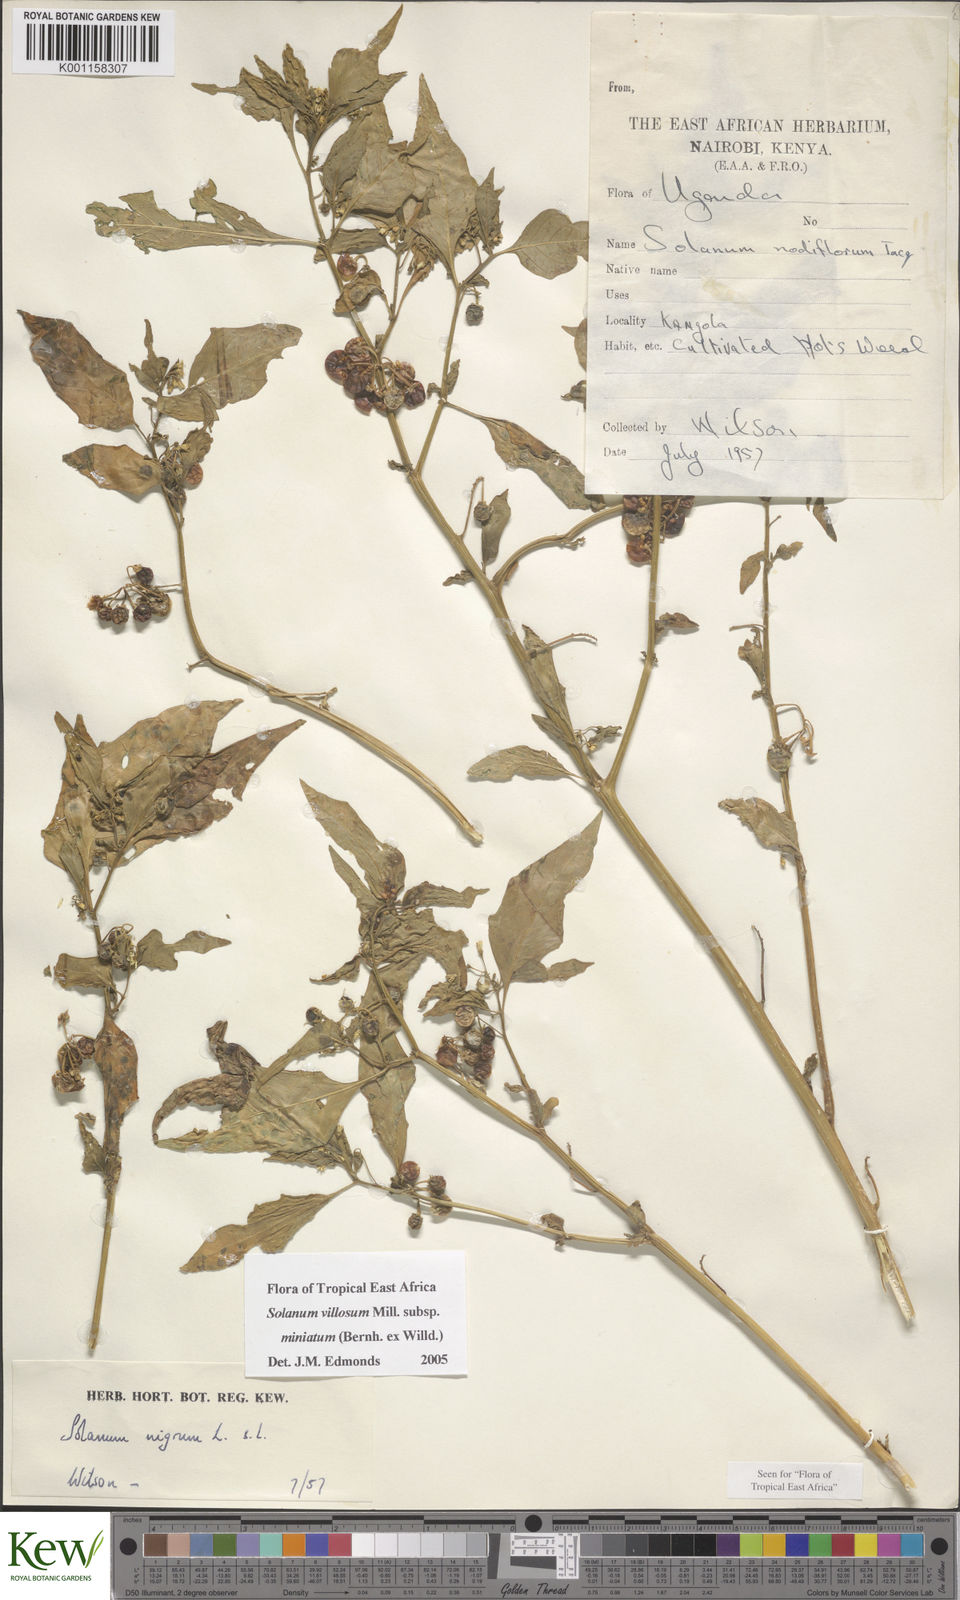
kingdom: Plantae
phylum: Tracheophyta
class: Magnoliopsida
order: Solanales
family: Solanaceae
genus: Solanum
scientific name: Solanum villosum
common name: Red nightshade
